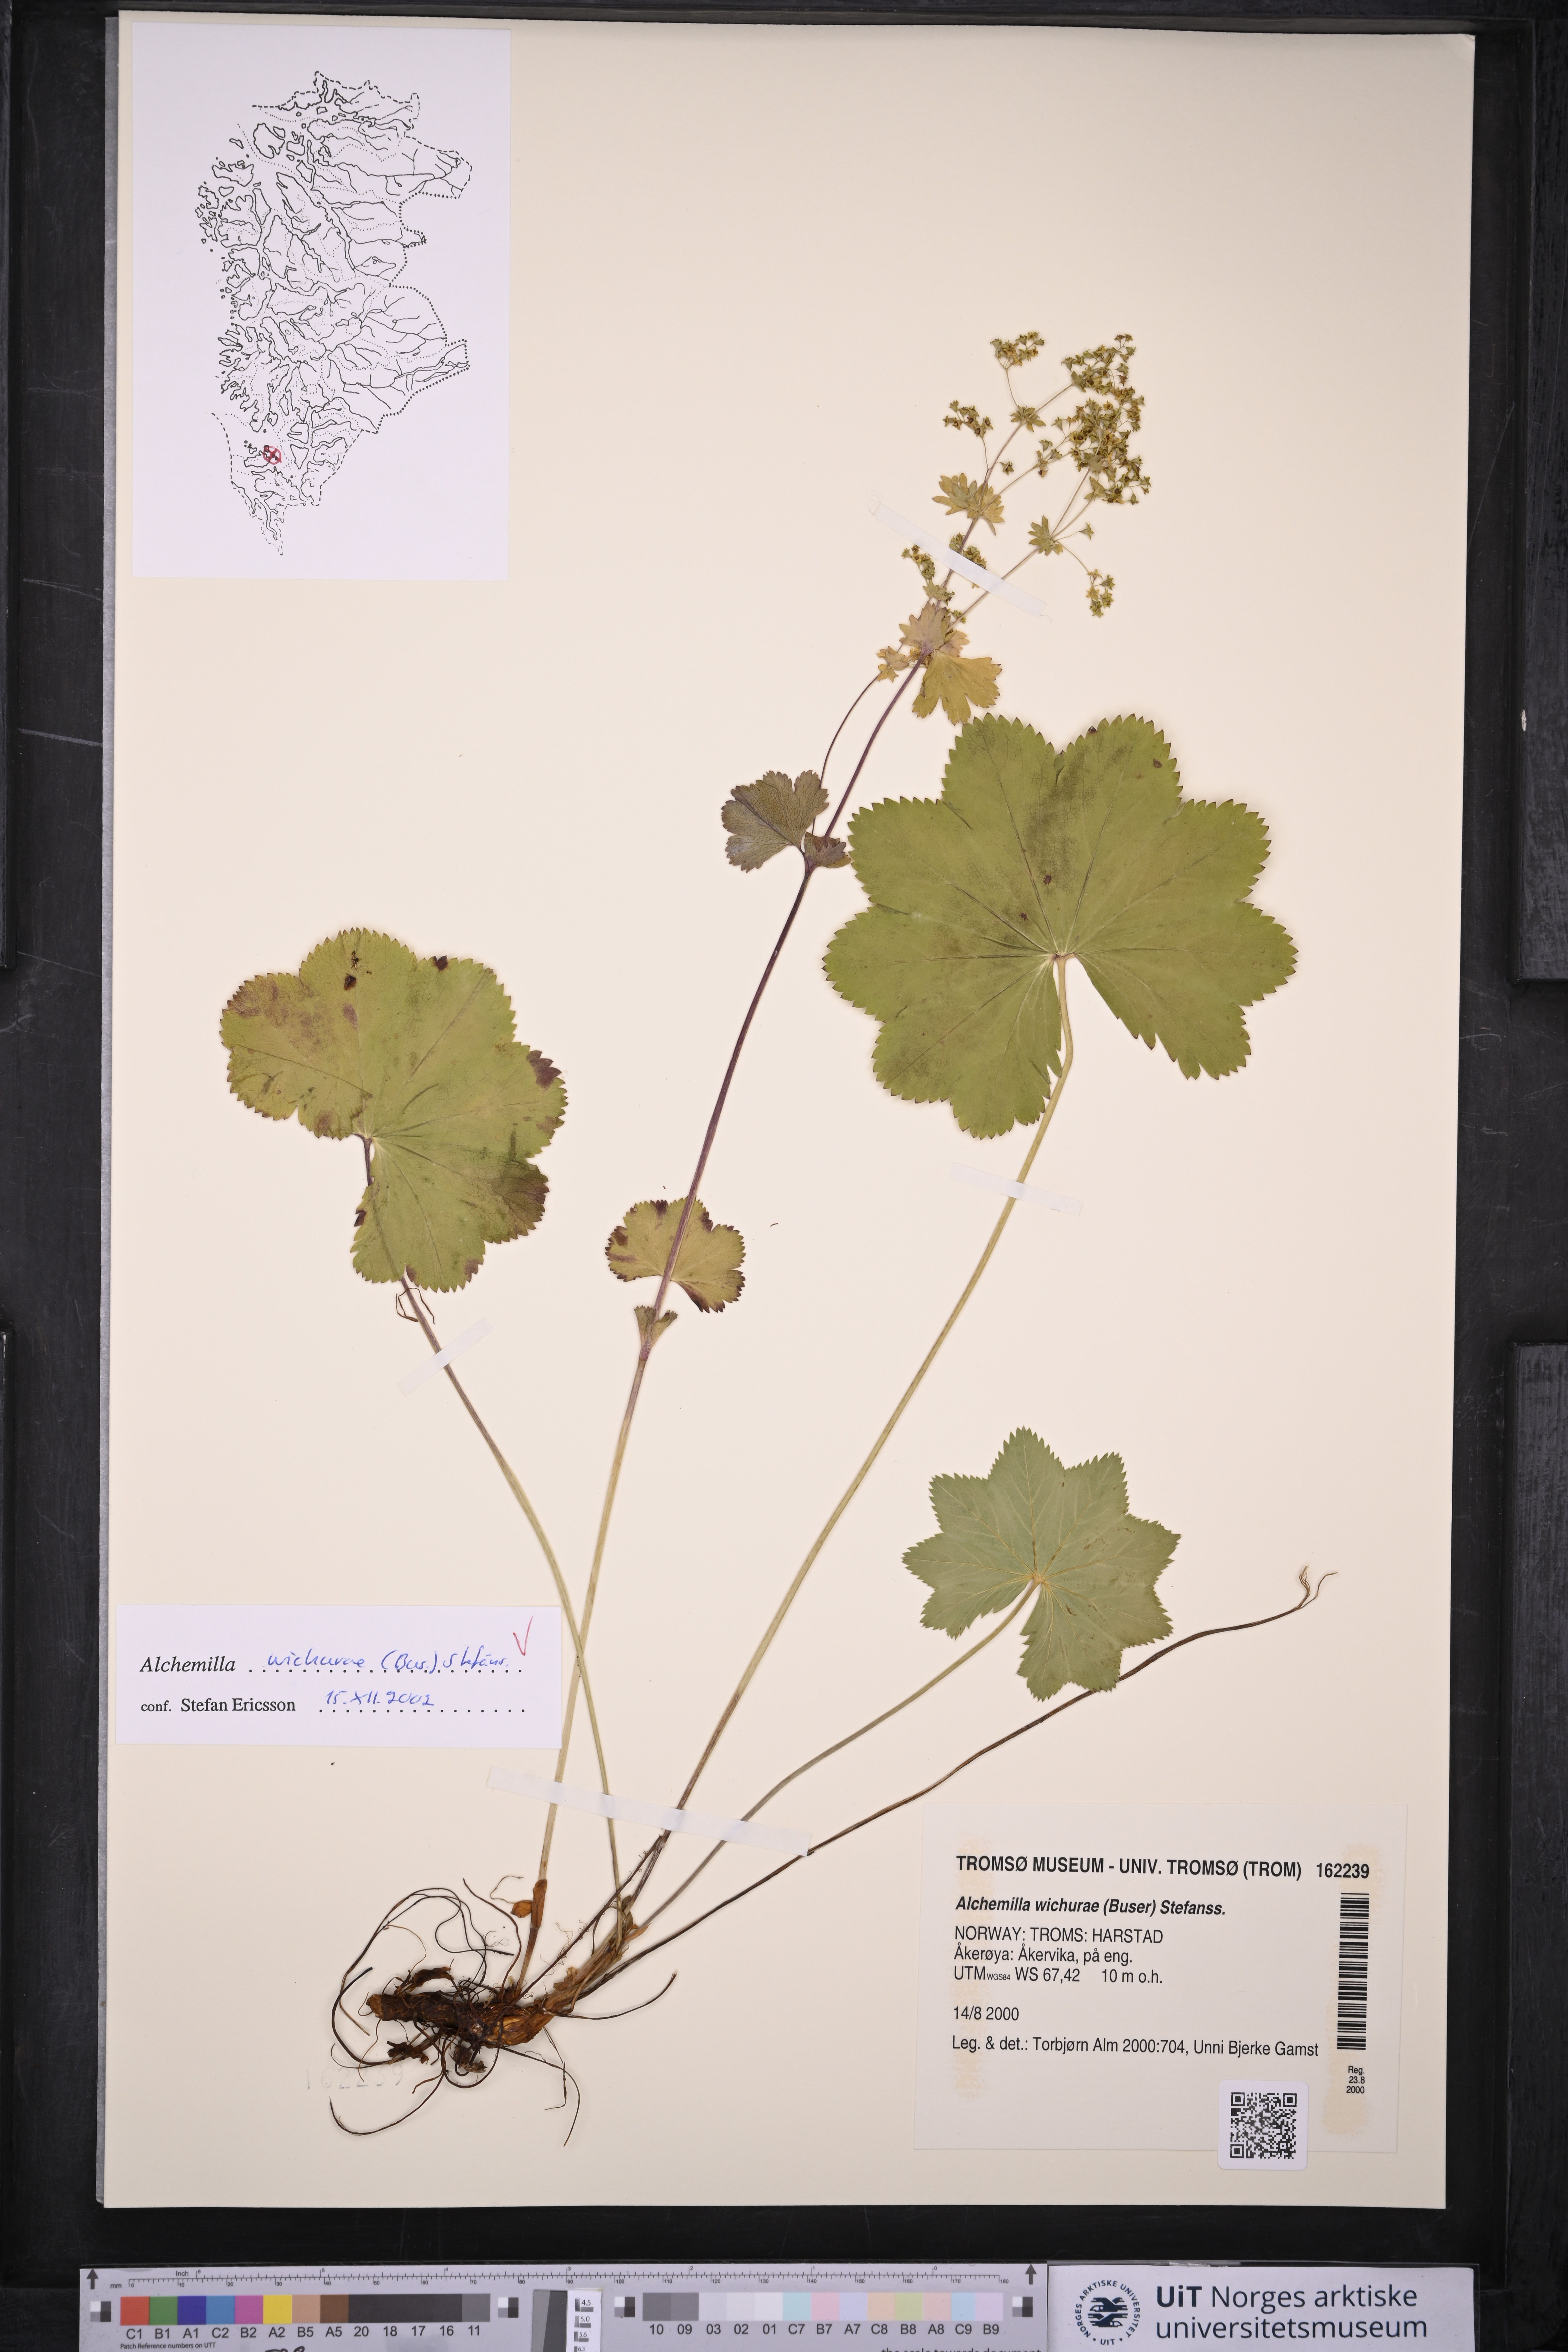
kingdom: Plantae
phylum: Tracheophyta
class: Magnoliopsida
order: Rosales
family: Rosaceae
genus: Alchemilla
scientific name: Alchemilla wichurae
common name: Rock lady's mantle
